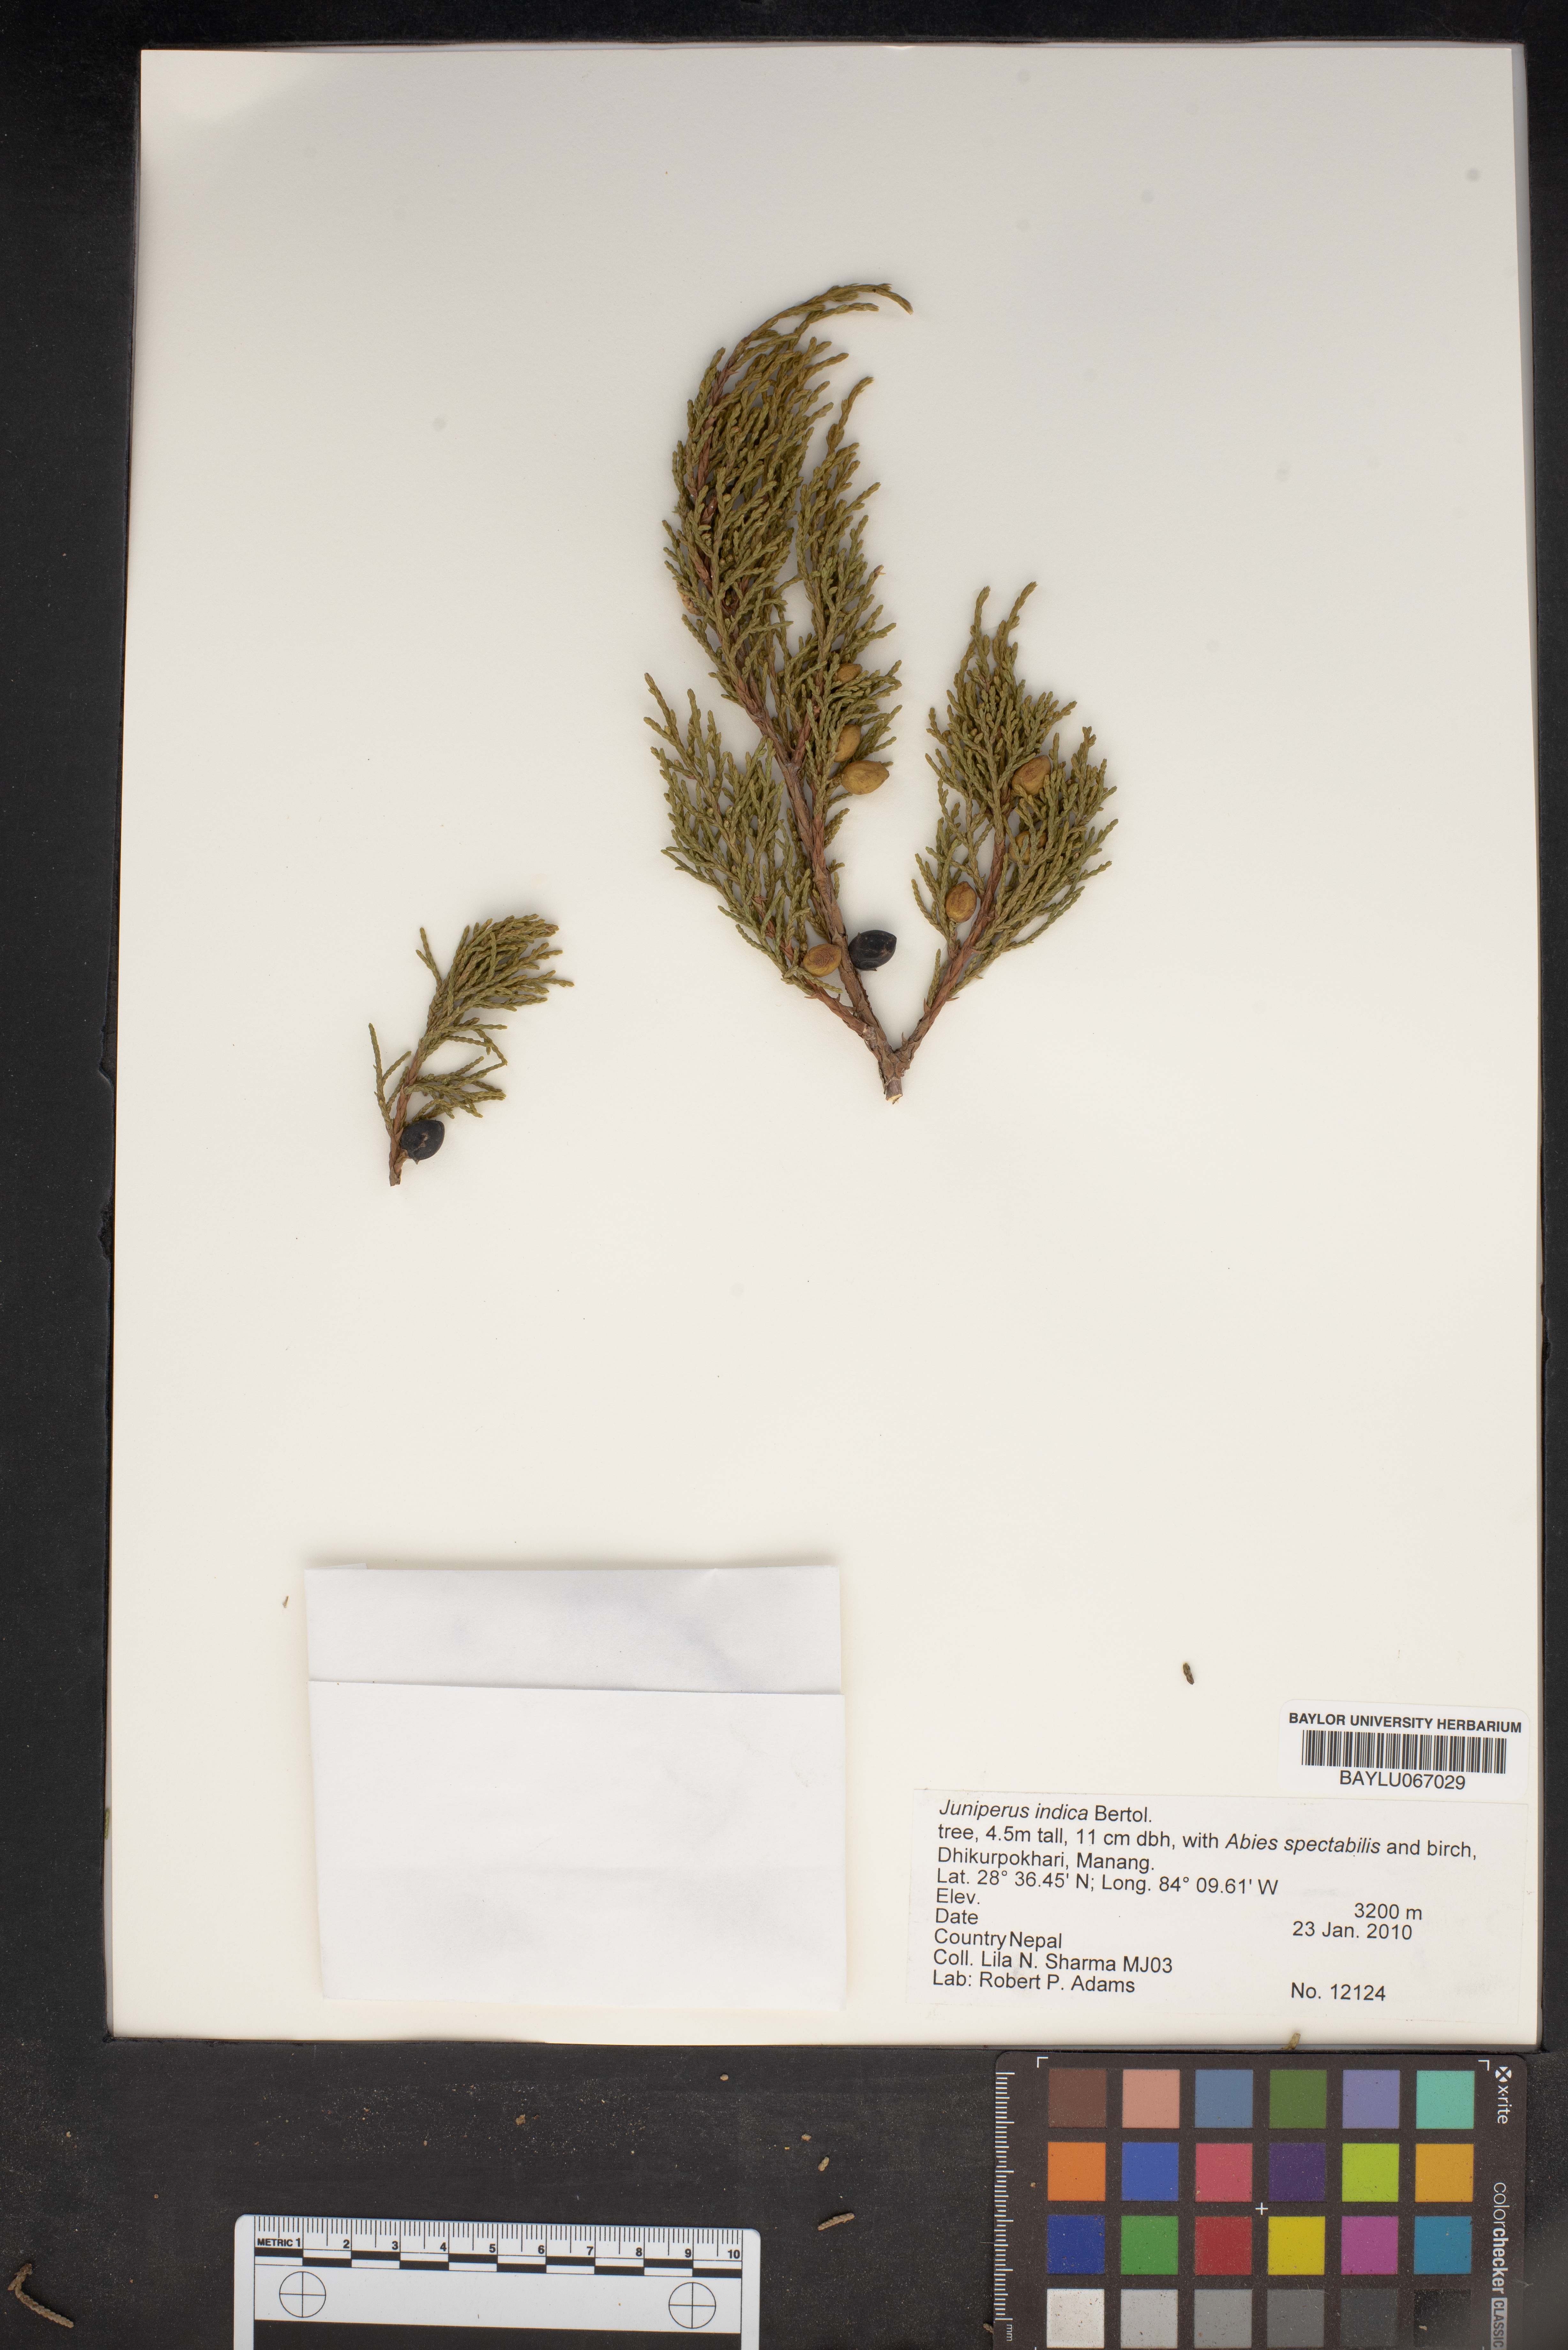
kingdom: Plantae
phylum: Tracheophyta
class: Pinopsida
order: Pinales
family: Cupressaceae
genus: Juniperus
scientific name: Juniperus indica
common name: Black juniper
